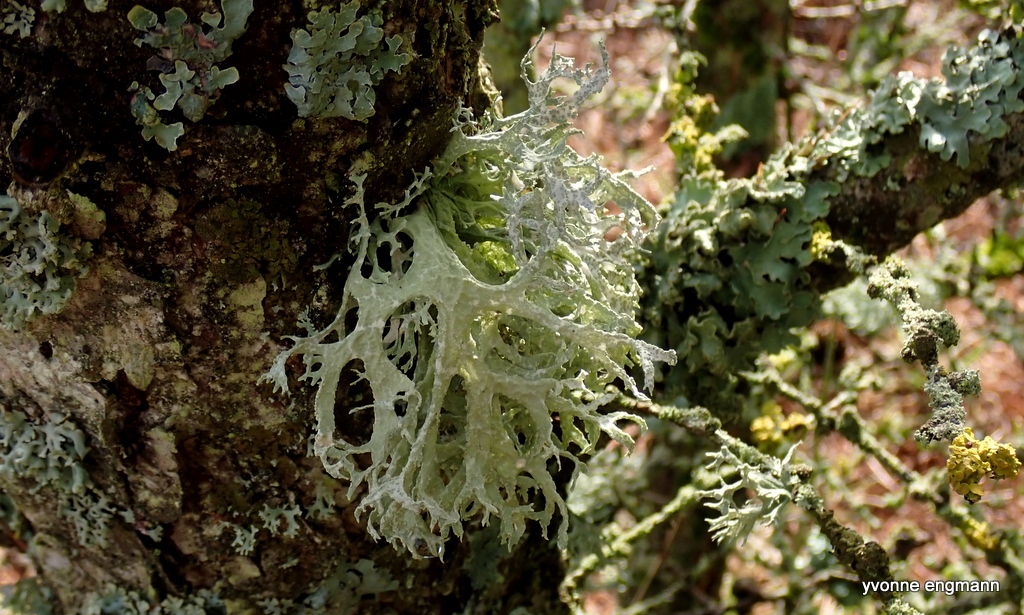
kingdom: Fungi
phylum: Ascomycota
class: Lecanoromycetes
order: Lecanorales
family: Parmeliaceae
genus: Evernia
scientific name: Evernia prunastri
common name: almindelig slåenlav
